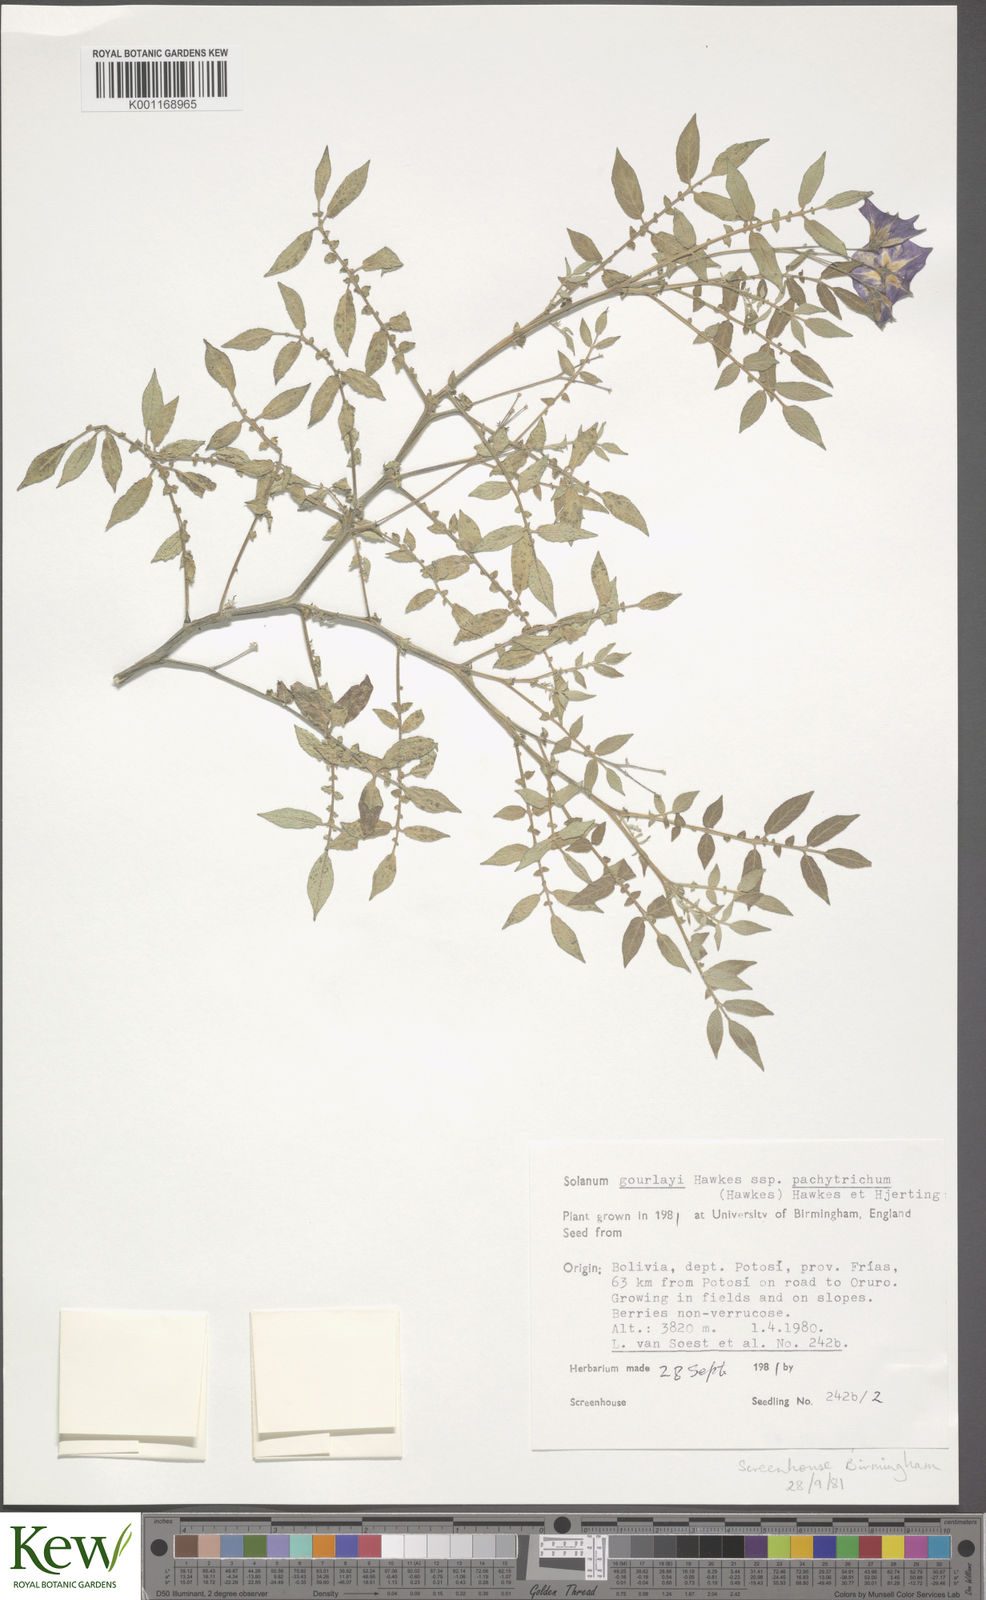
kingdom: Plantae
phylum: Tracheophyta
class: Magnoliopsida
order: Solanales
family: Solanaceae
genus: Solanum
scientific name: Solanum brevicaule
